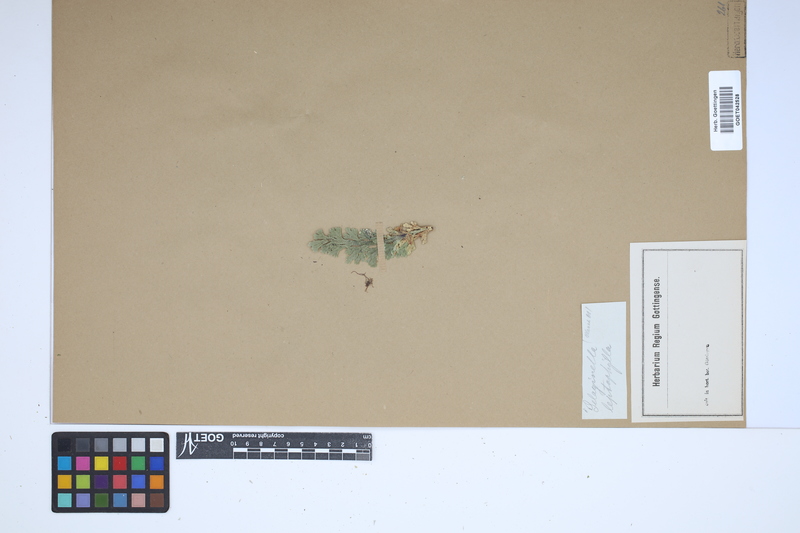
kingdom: Plantae
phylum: Tracheophyta
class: Lycopodiopsida
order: Selaginellales
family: Selaginellaceae
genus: Selaginella
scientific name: Selaginella lepidophylla
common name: Rose-of-jericho
